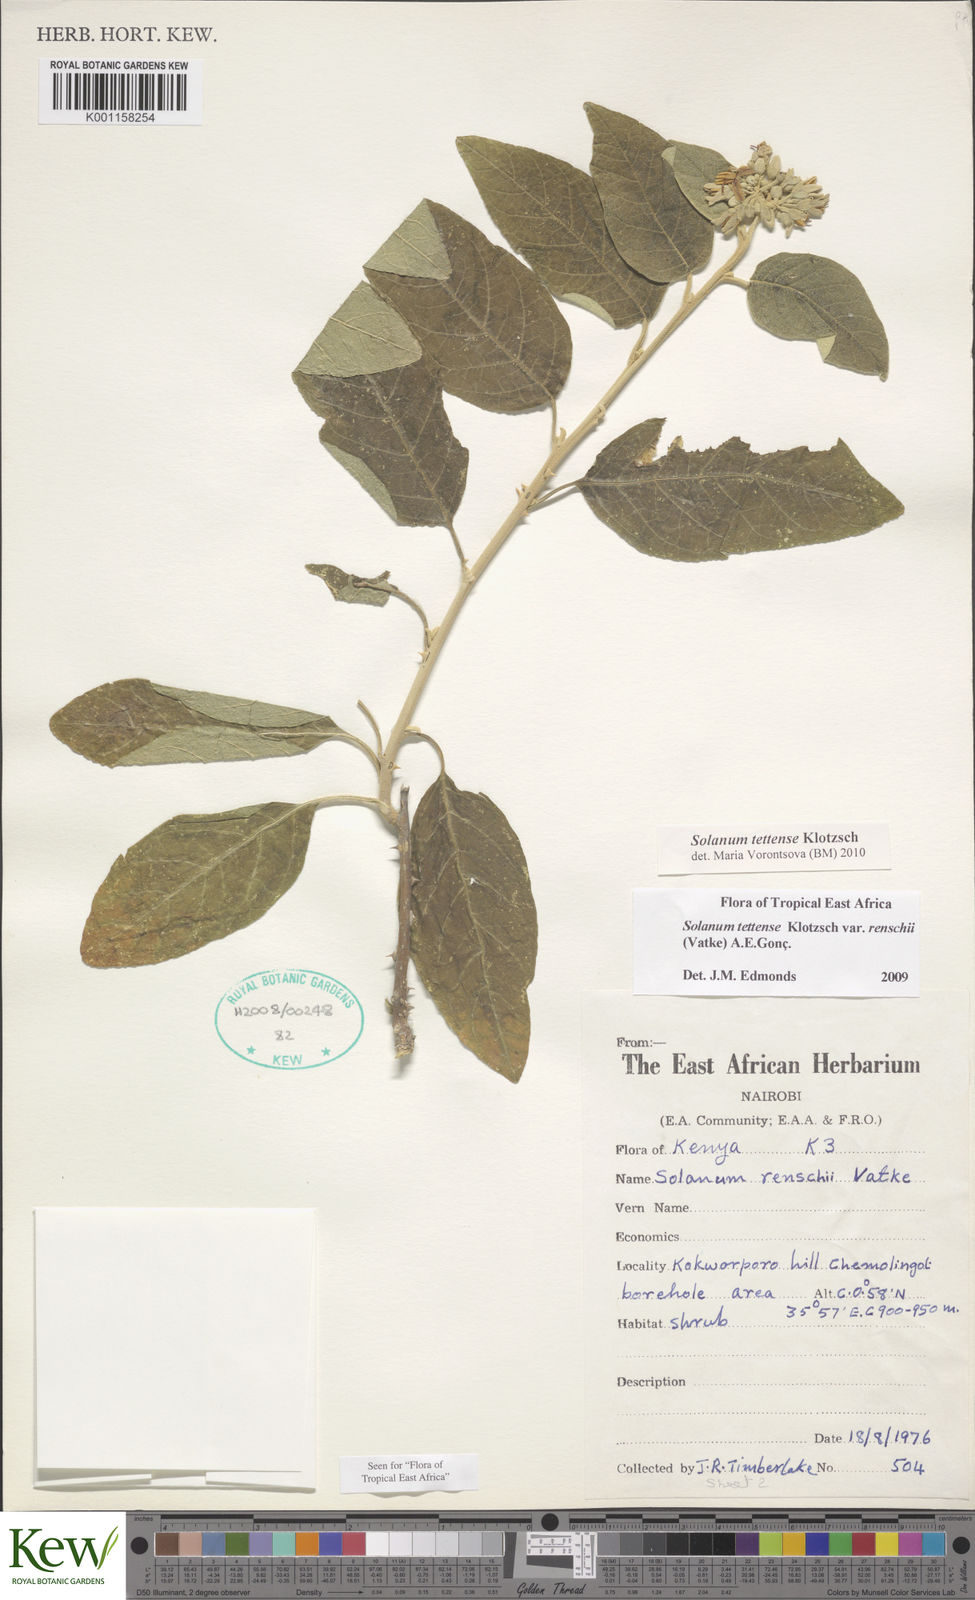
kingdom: Plantae
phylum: Tracheophyta
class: Magnoliopsida
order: Solanales
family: Solanaceae
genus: Solanum
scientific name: Solanum tettense
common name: Mozambique bitter apple
